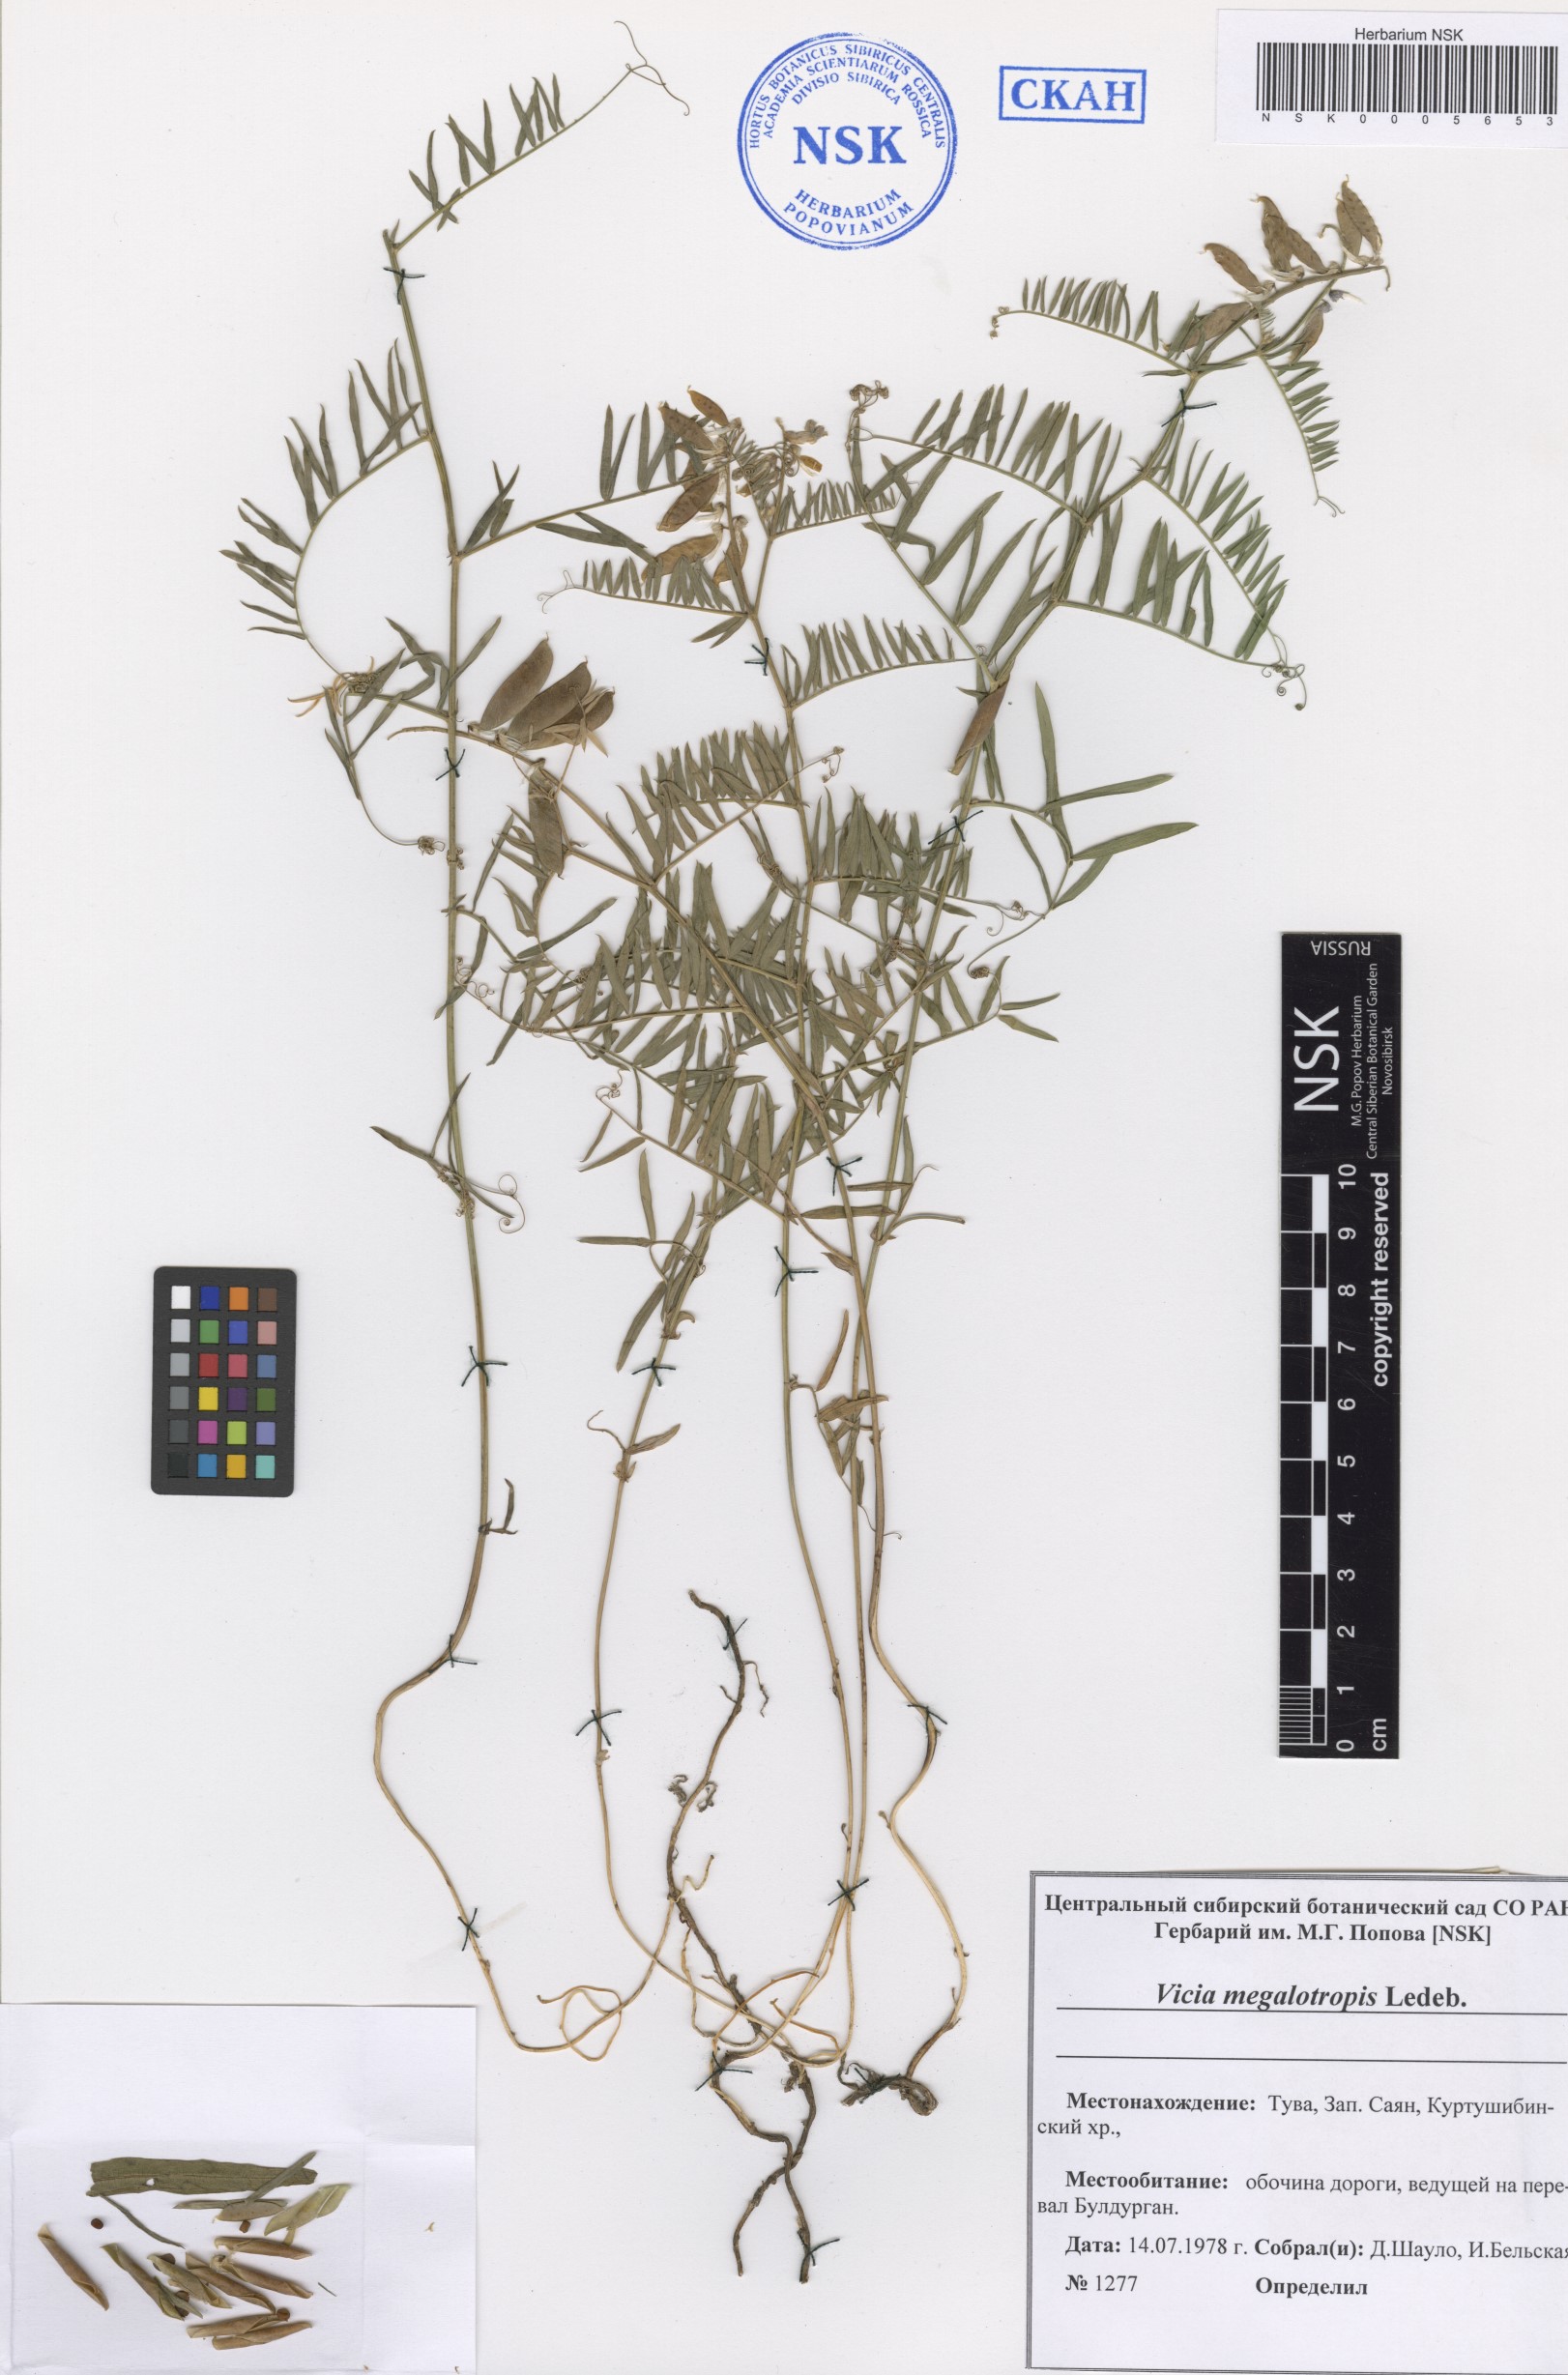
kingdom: Plantae
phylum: Tracheophyta
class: Magnoliopsida
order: Fabales
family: Fabaceae
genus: Vicia
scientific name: Vicia megalotropis
